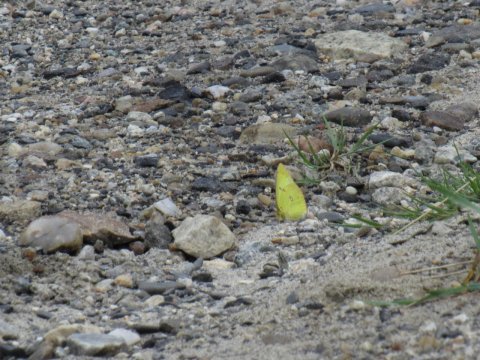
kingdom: Animalia
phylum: Arthropoda
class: Insecta
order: Lepidoptera
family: Pieridae
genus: Colias
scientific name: Colias philodice
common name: Clouded Sulphur
